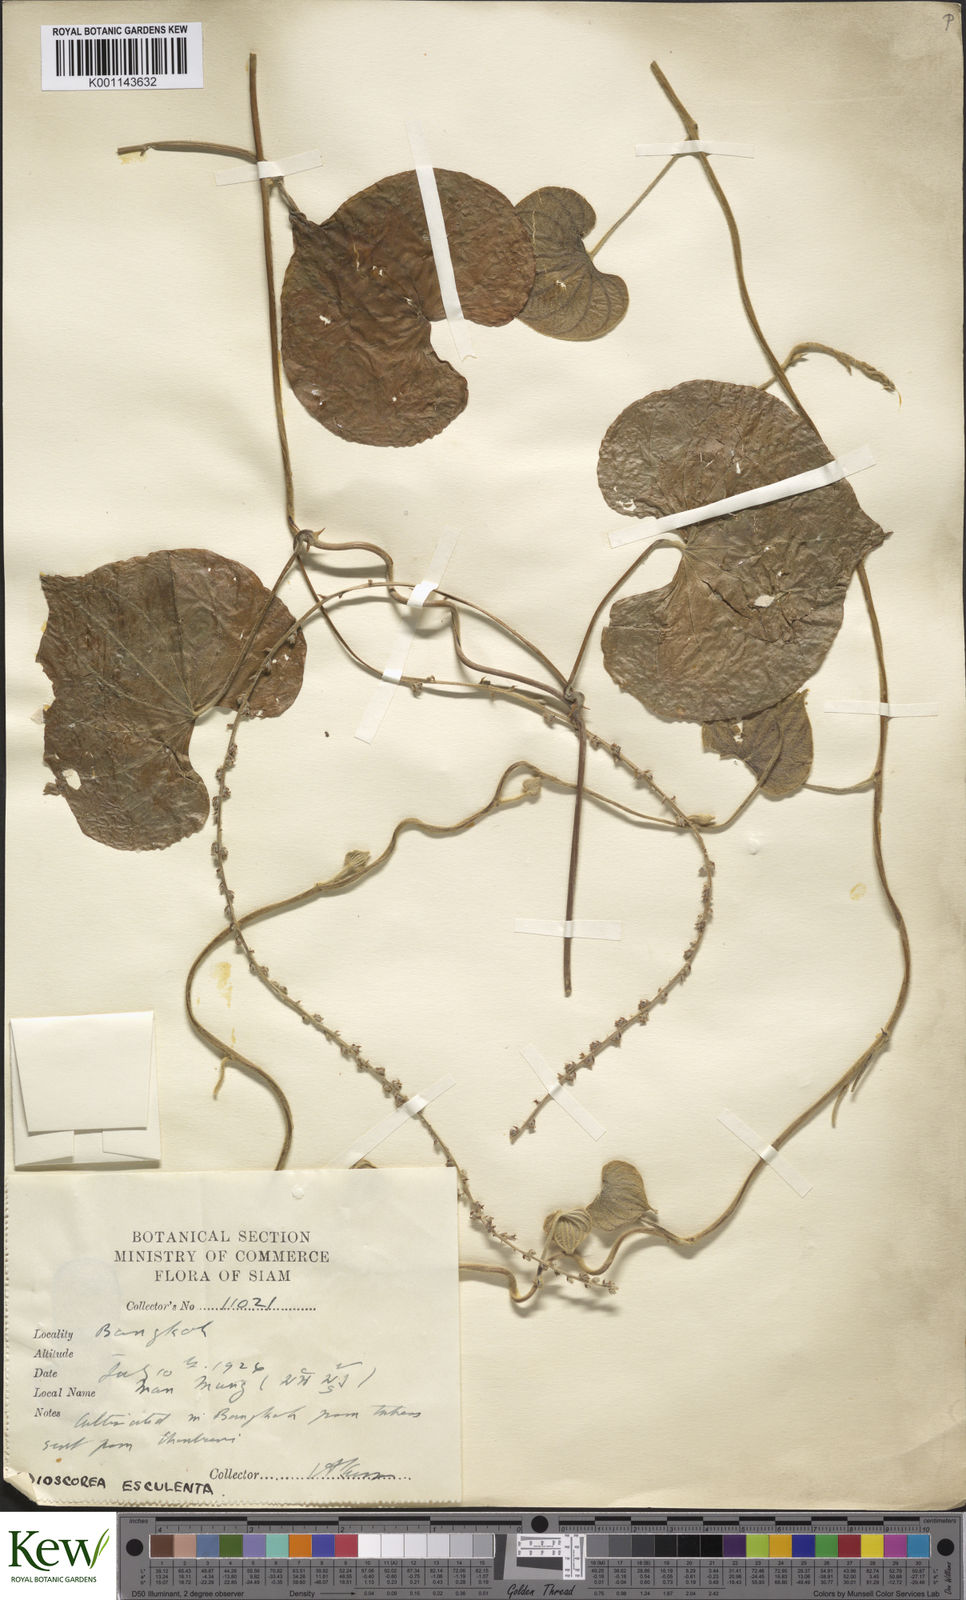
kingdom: Plantae
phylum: Tracheophyta
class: Liliopsida
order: Dioscoreales
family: Dioscoreaceae
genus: Dioscorea
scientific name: Dioscorea esculenta
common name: Chinese yam
